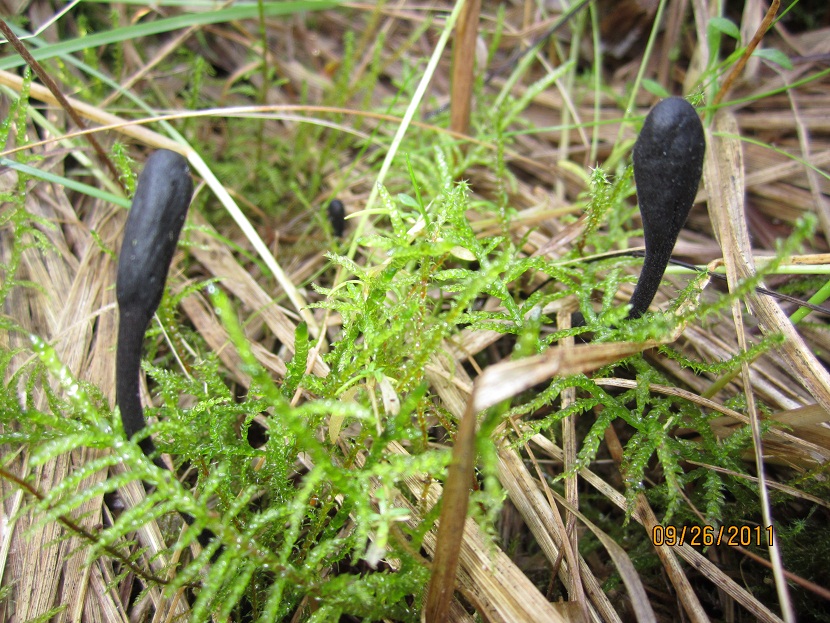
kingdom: Fungi
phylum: Ascomycota
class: Geoglossomycetes
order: Geoglossales
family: Geoglossaceae
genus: Trichoglossum
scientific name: Trichoglossum hirsutum
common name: håret jordtunge
